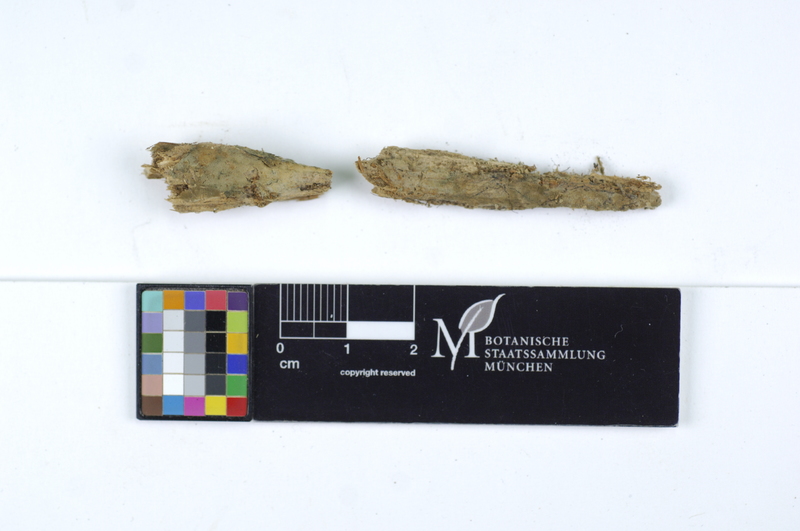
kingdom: Plantae
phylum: Tracheophyta
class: Pinopsida
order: Pinales
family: Pinaceae
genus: Picea
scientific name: Picea
